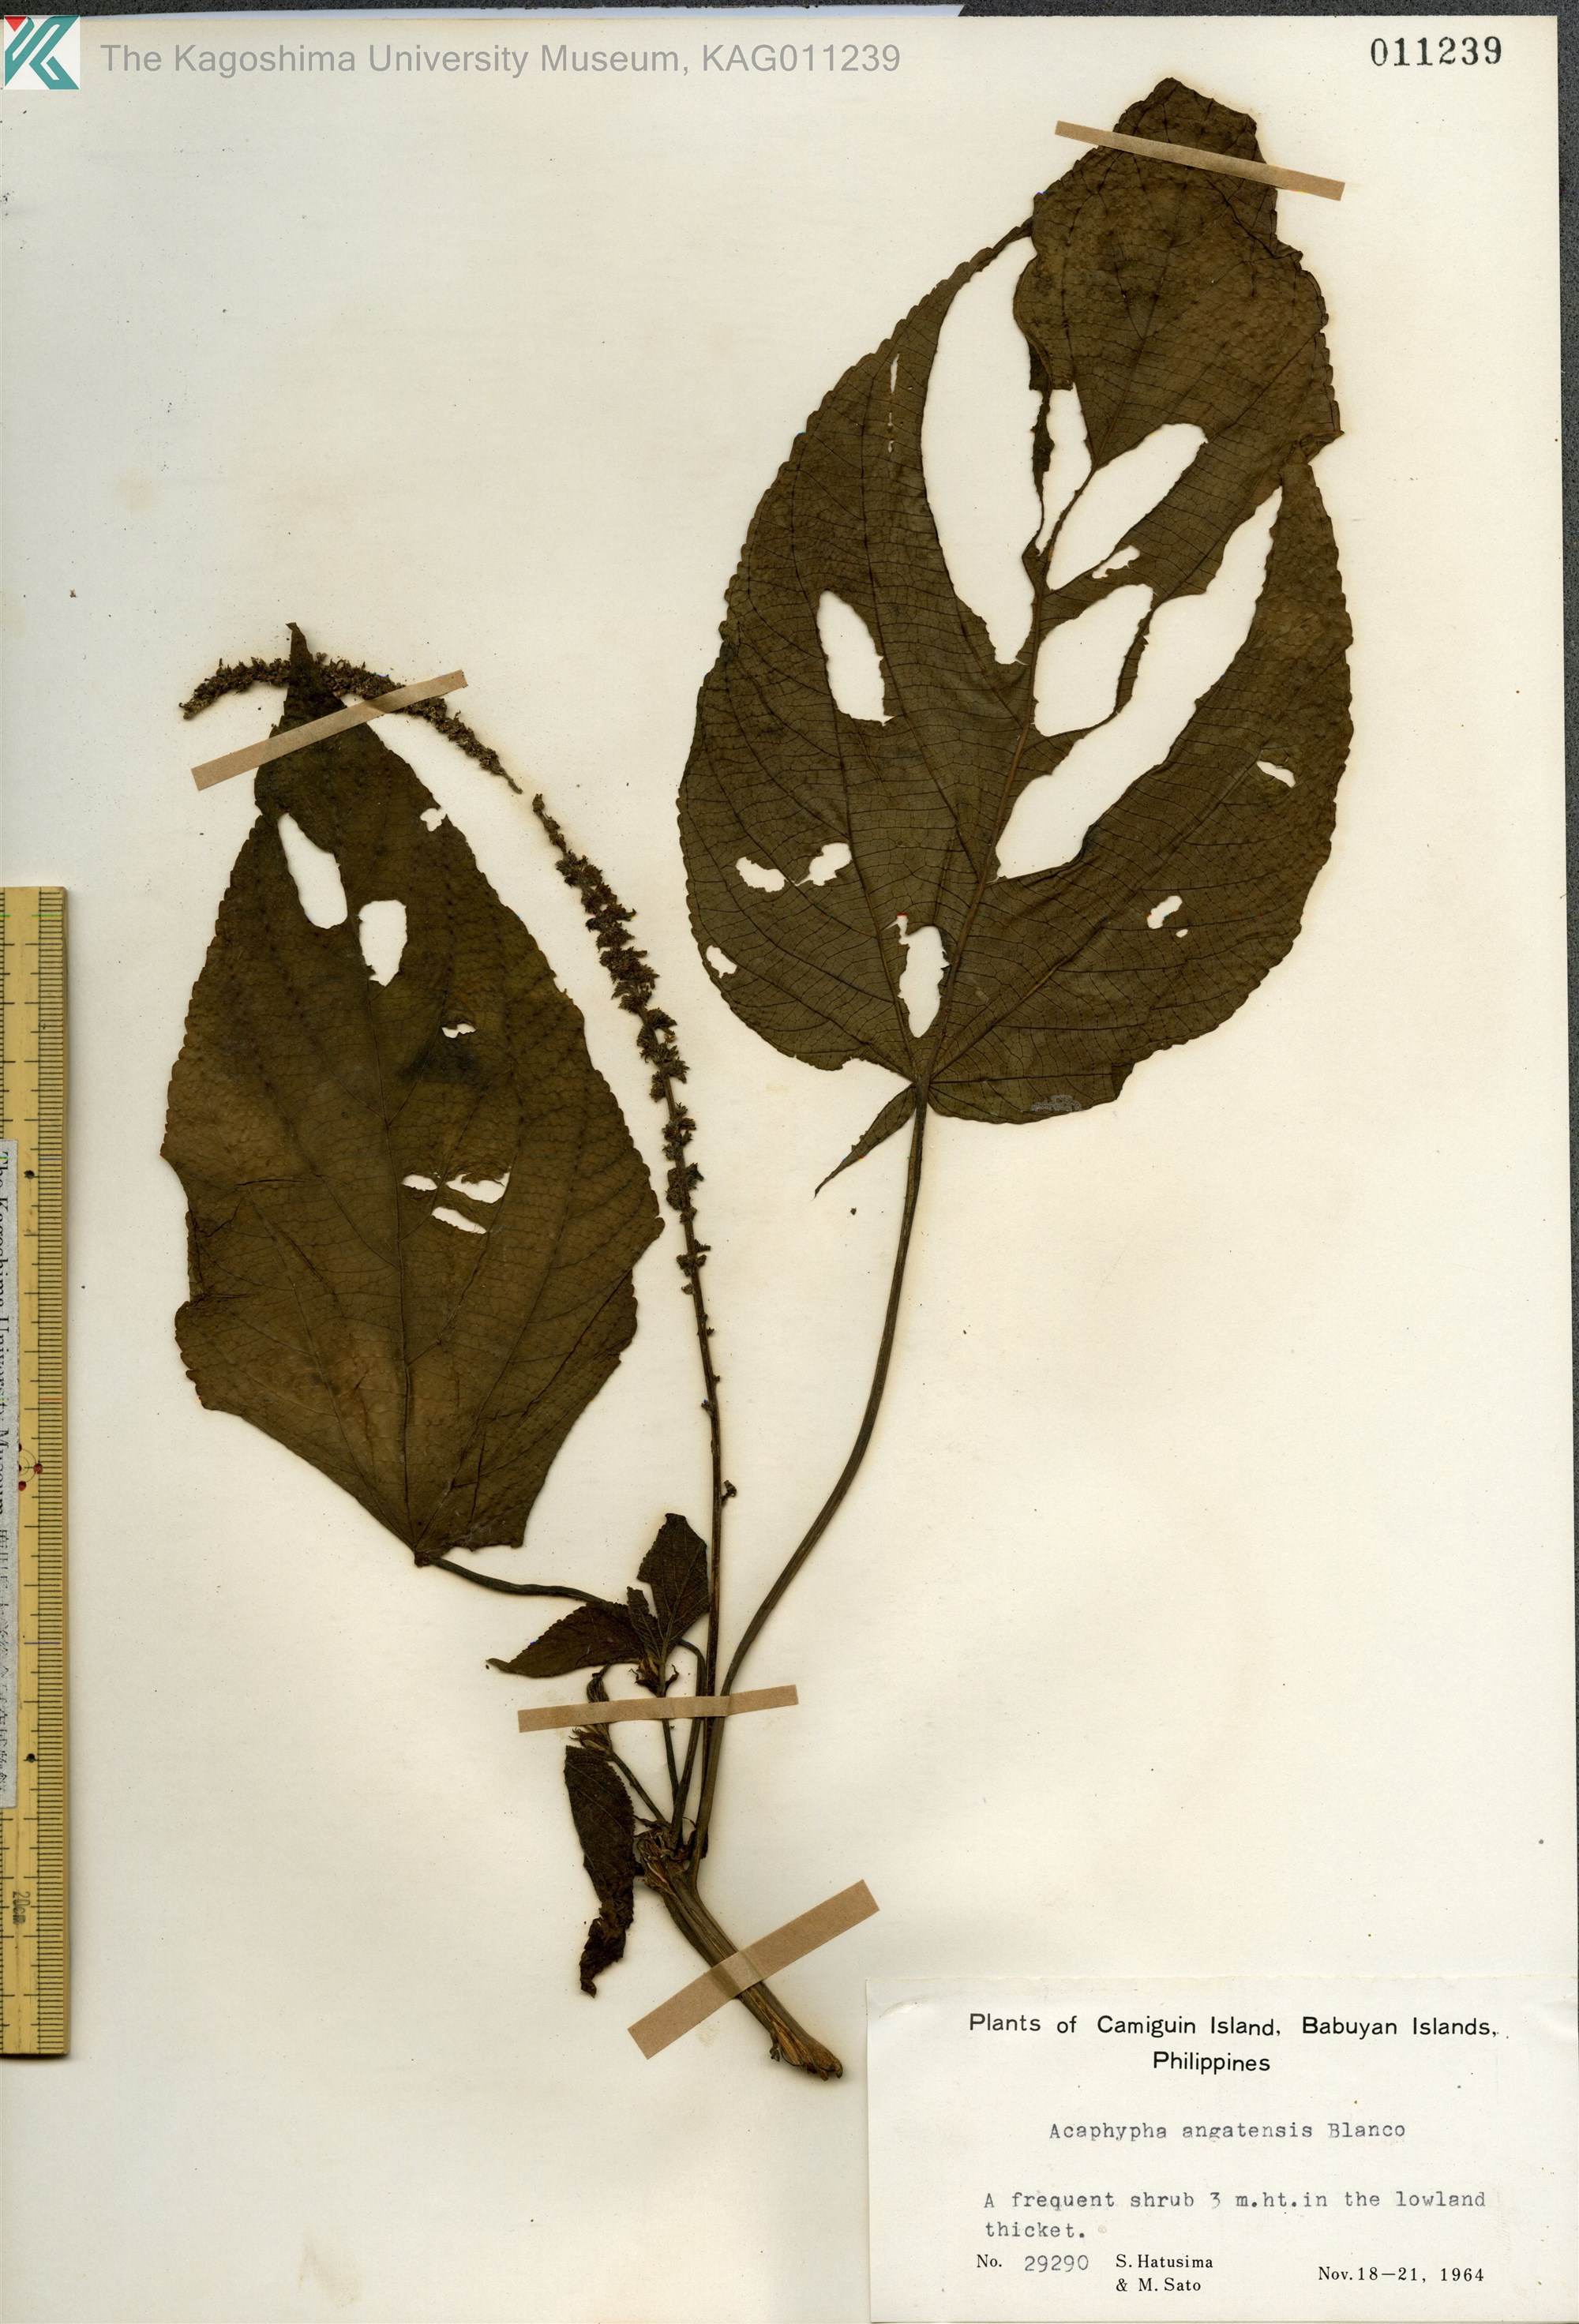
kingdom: Plantae
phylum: Tracheophyta
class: Magnoliopsida
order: Malpighiales
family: Euphorbiaceae
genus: Acalypha
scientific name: Acalypha angatensis
